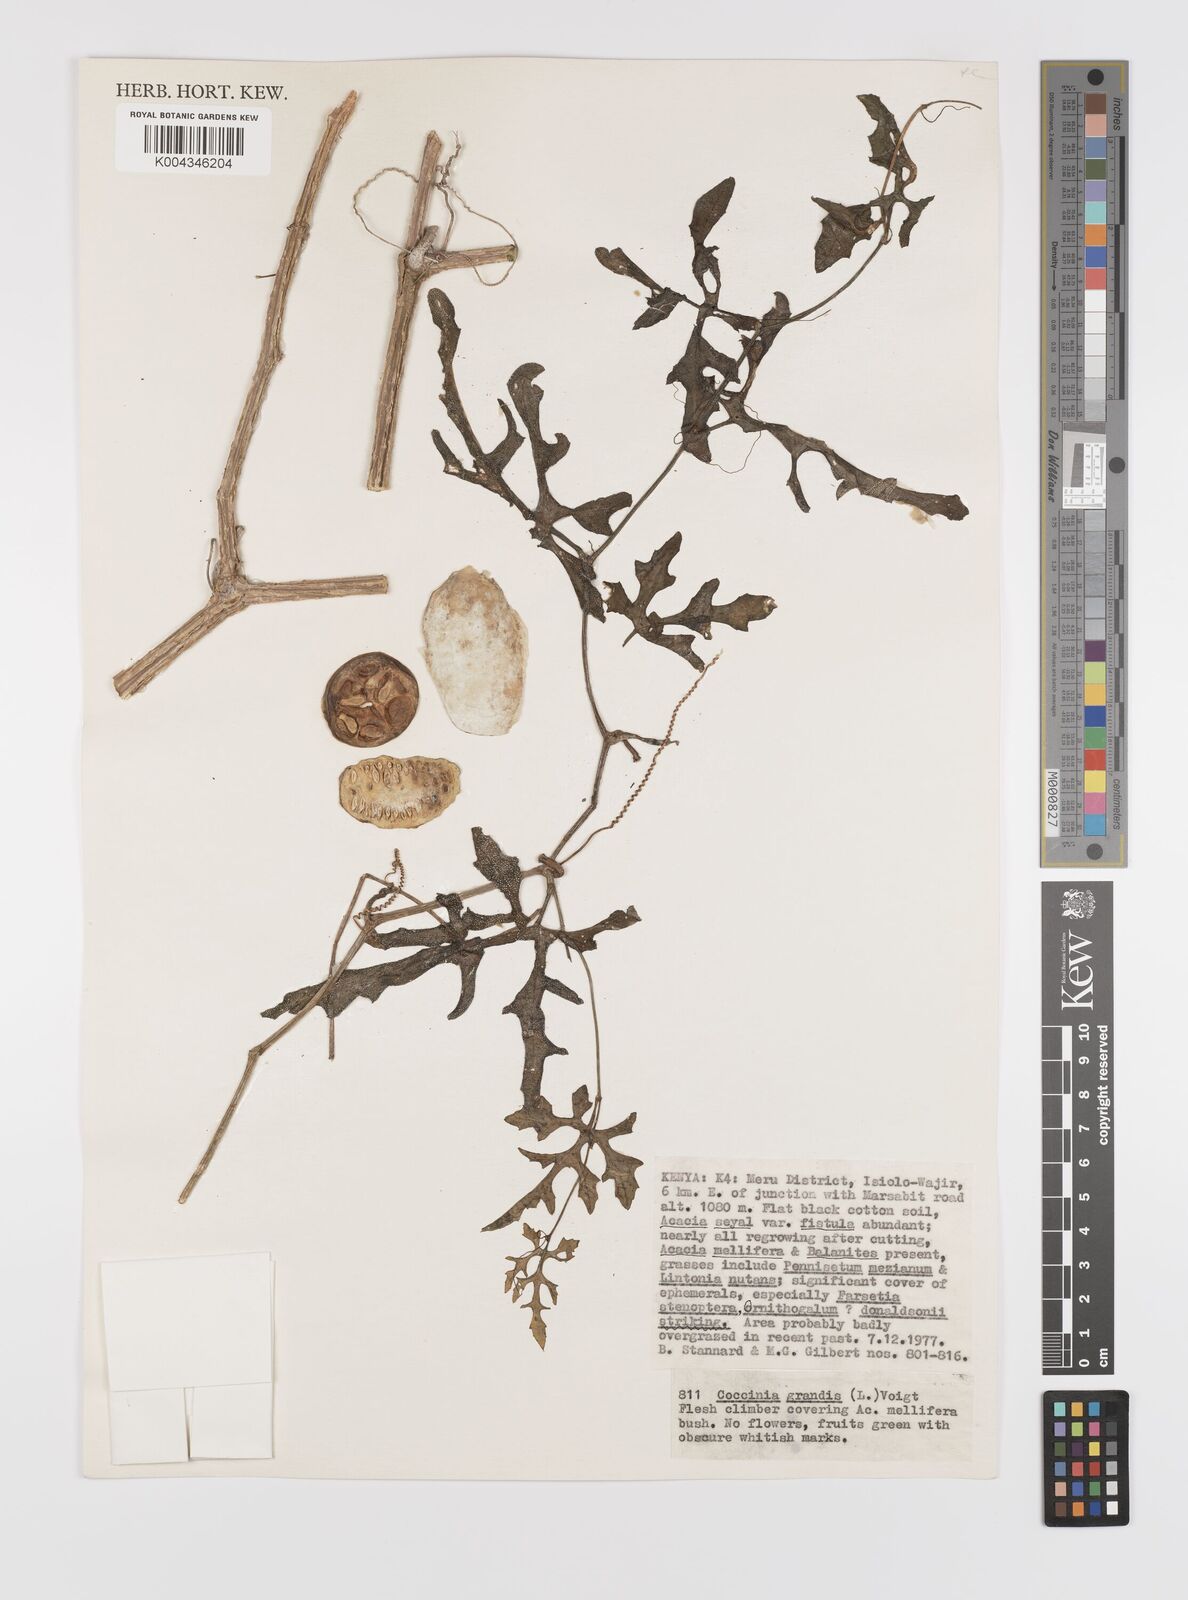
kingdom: Plantae
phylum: Tracheophyta
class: Magnoliopsida
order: Cucurbitales
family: Cucurbitaceae
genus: Coccinia
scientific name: Coccinia grandis
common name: Ivy gourd
